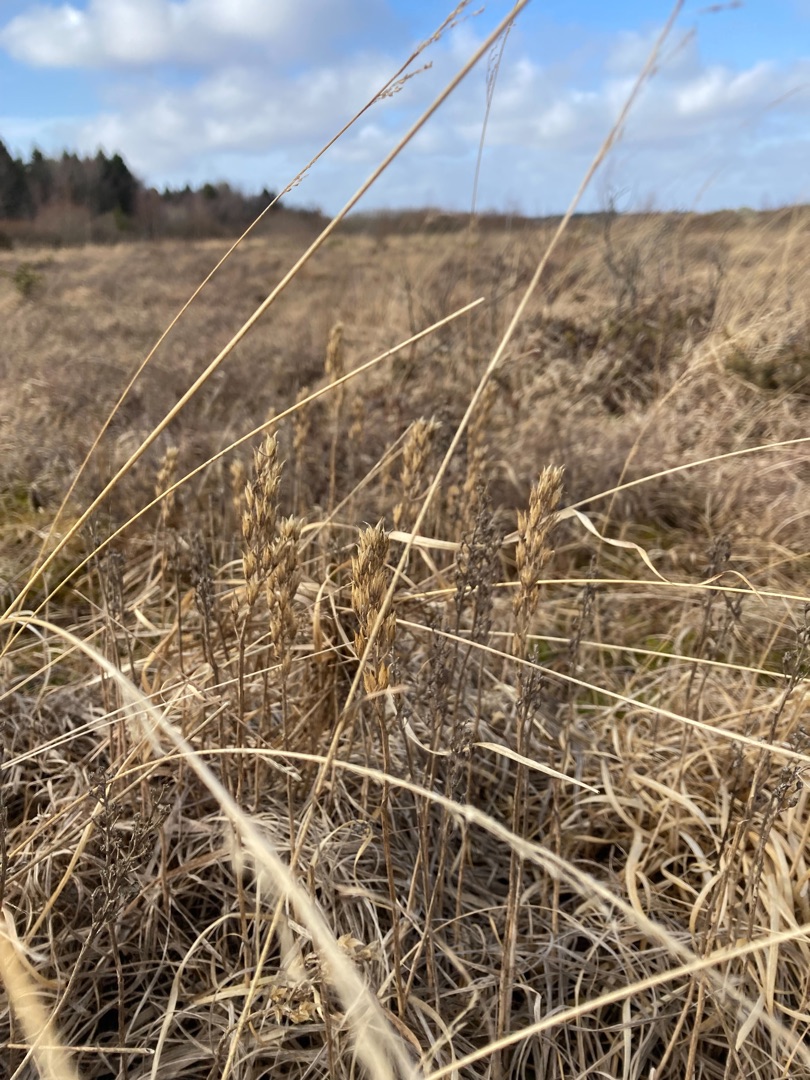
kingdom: Plantae
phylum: Tracheophyta
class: Liliopsida
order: Dioscoreales
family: Nartheciaceae
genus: Narthecium
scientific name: Narthecium ossifragum
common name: Benbræk
